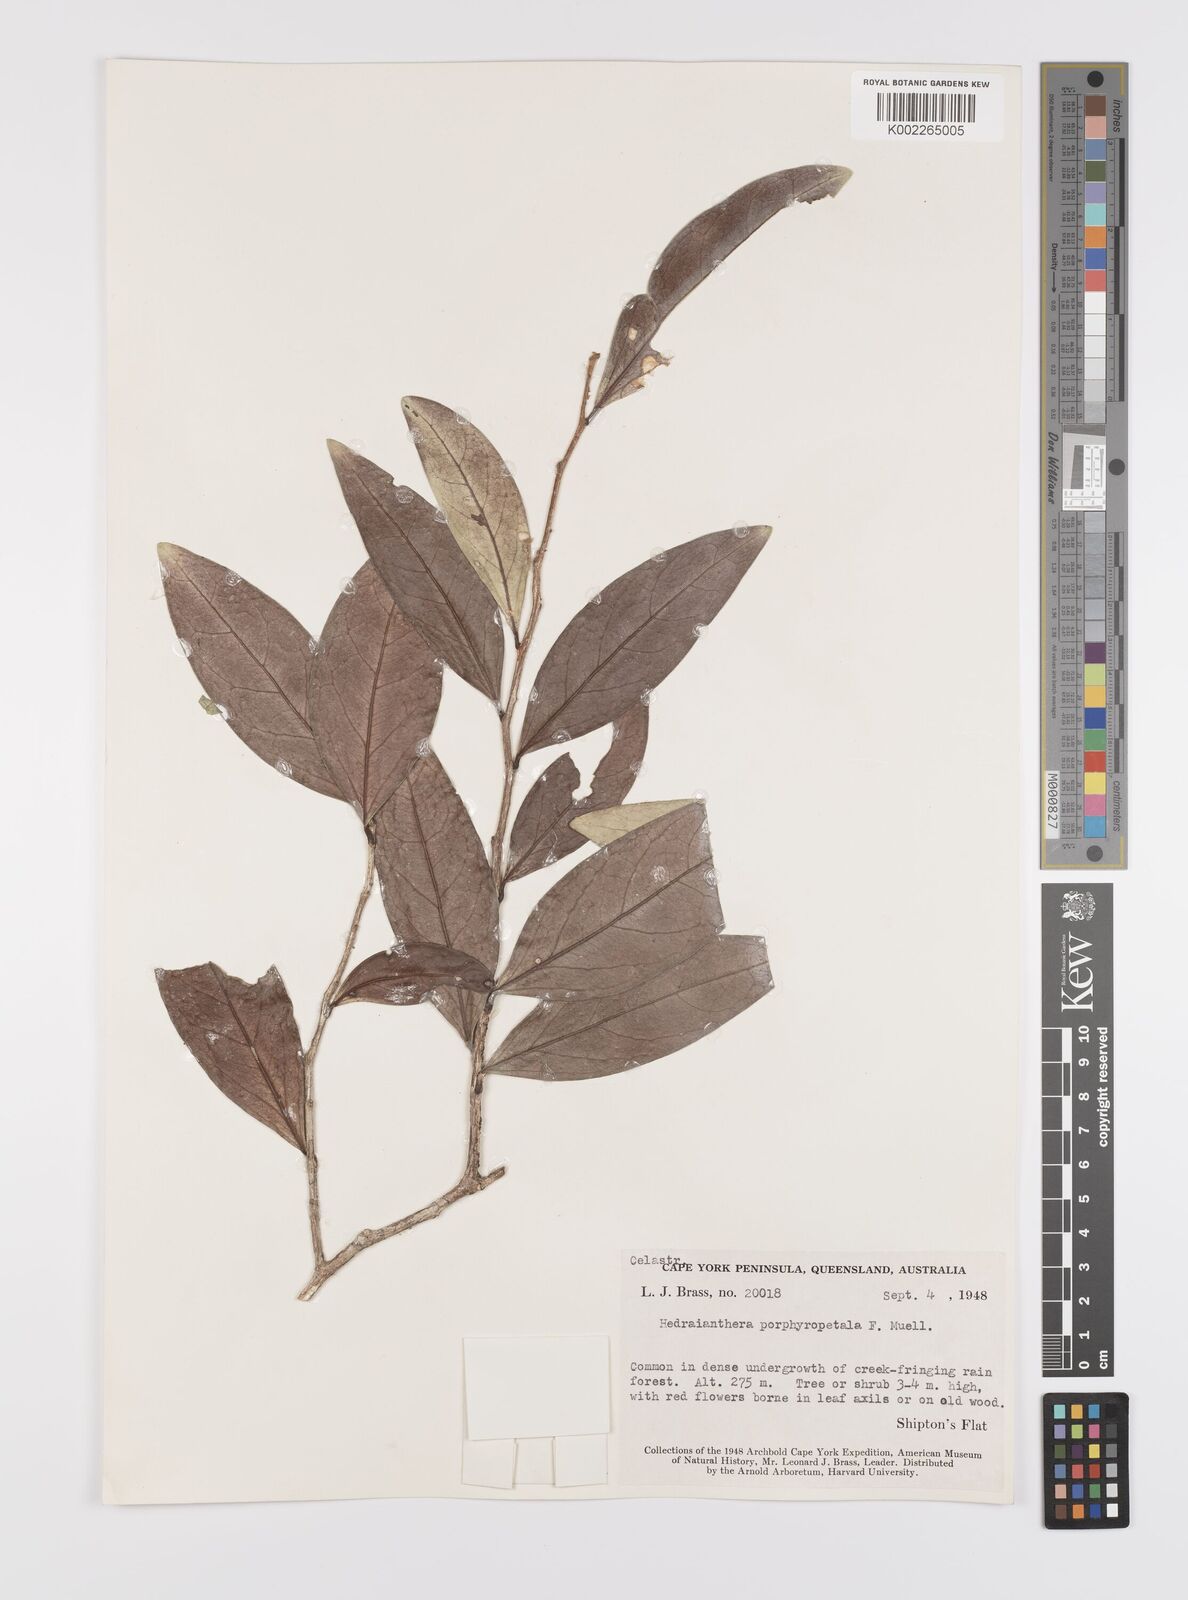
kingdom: Plantae
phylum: Tracheophyta
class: Magnoliopsida
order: Celastrales
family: Celastraceae
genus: Hedraianthera
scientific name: Hedraianthera porphyropetala
